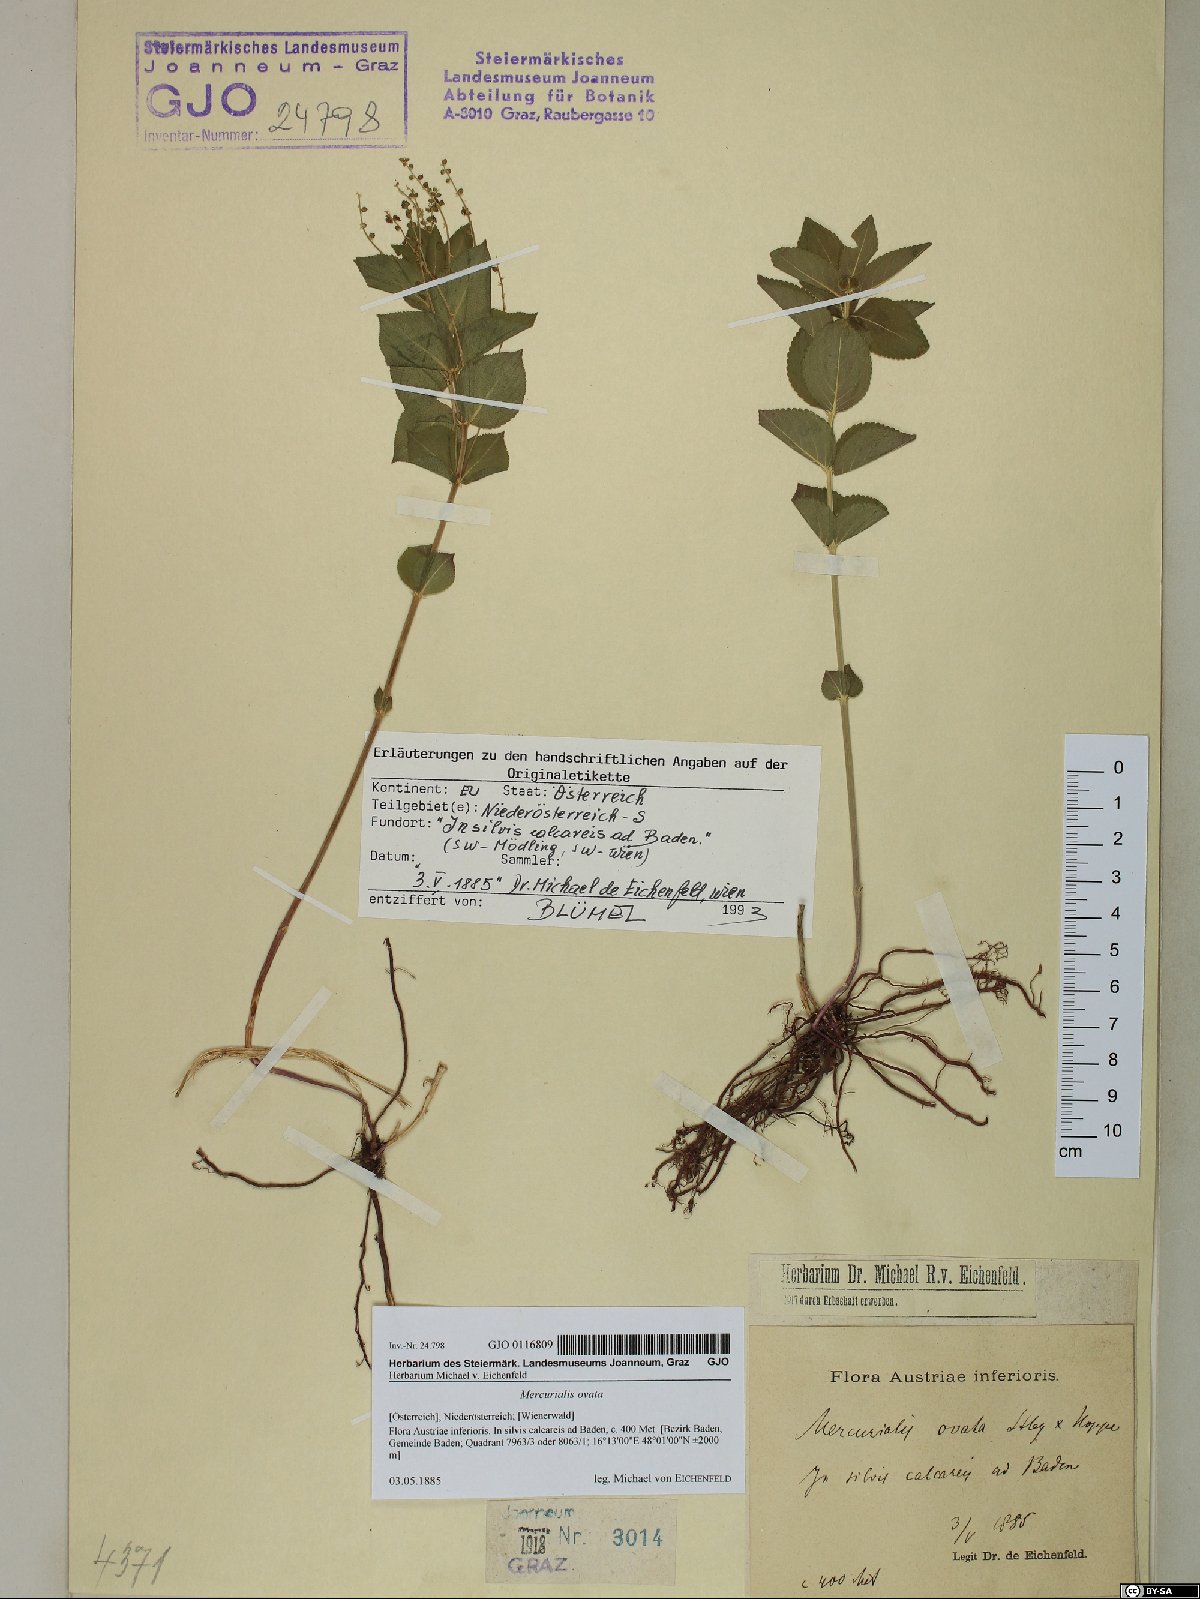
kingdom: Plantae
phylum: Tracheophyta
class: Magnoliopsida
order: Malpighiales
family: Euphorbiaceae
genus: Mercurialis
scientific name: Mercurialis ovata
